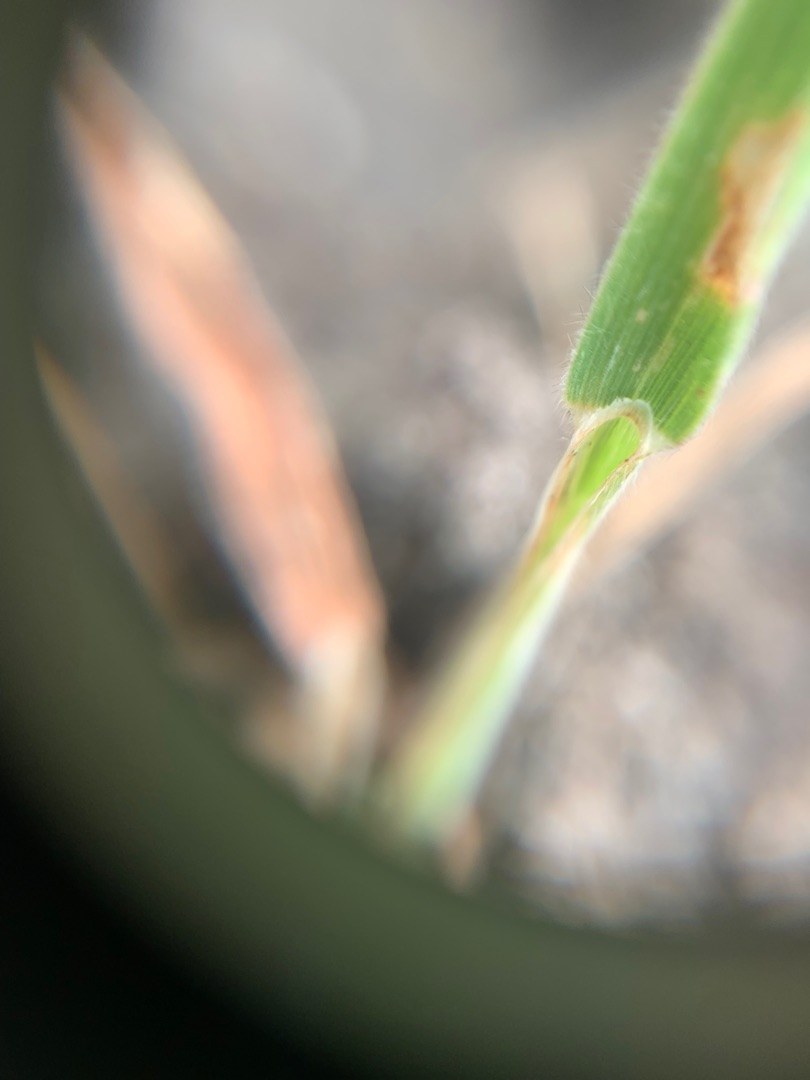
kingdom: Plantae
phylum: Tracheophyta
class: Liliopsida
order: Poales
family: Poaceae
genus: Holcus
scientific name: Holcus lanatus
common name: Fløjlsgræs
